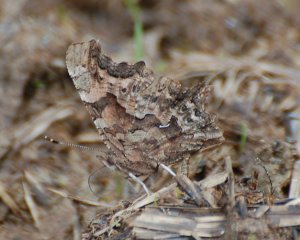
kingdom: Animalia
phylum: Arthropoda
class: Insecta
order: Lepidoptera
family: Nymphalidae
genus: Polygonia
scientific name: Polygonia faunus
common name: Green Comma
